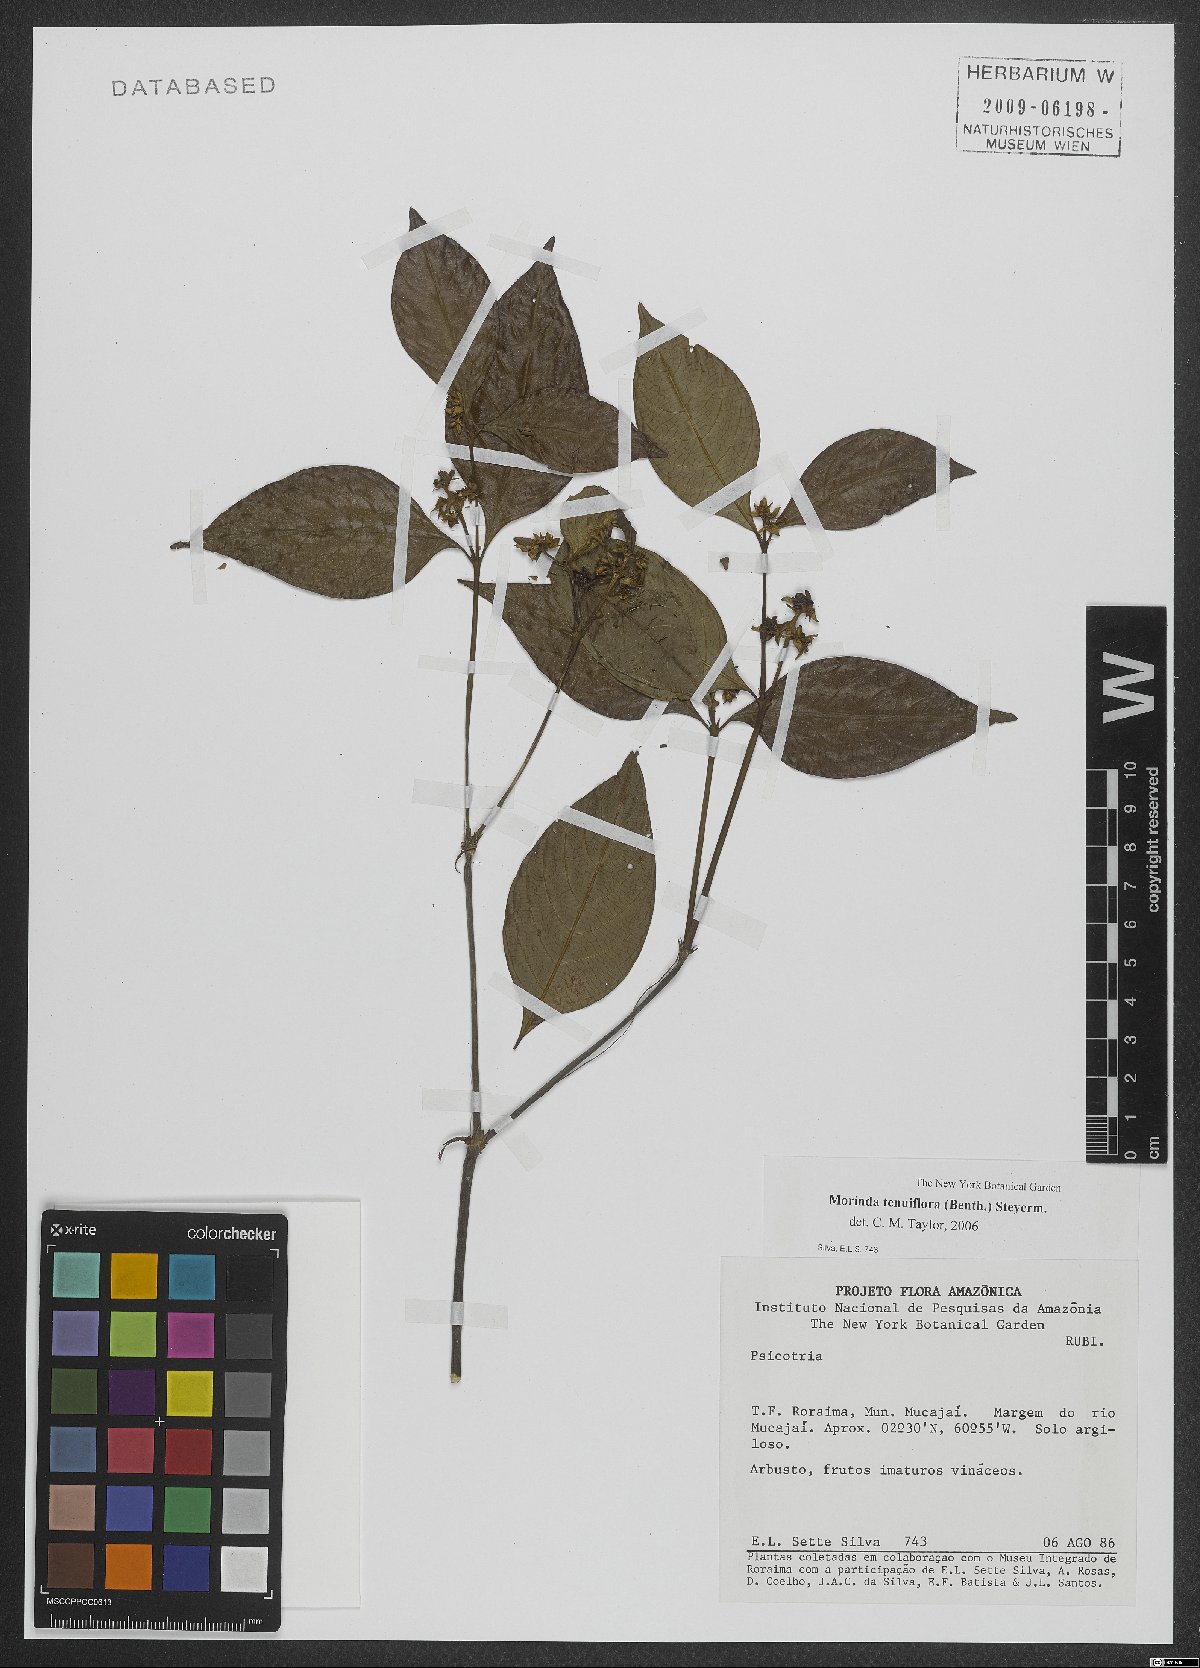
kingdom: Plantae
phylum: Tracheophyta
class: Magnoliopsida
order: Gentianales
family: Rubiaceae
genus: Appunia
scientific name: Appunia tenuiflora
